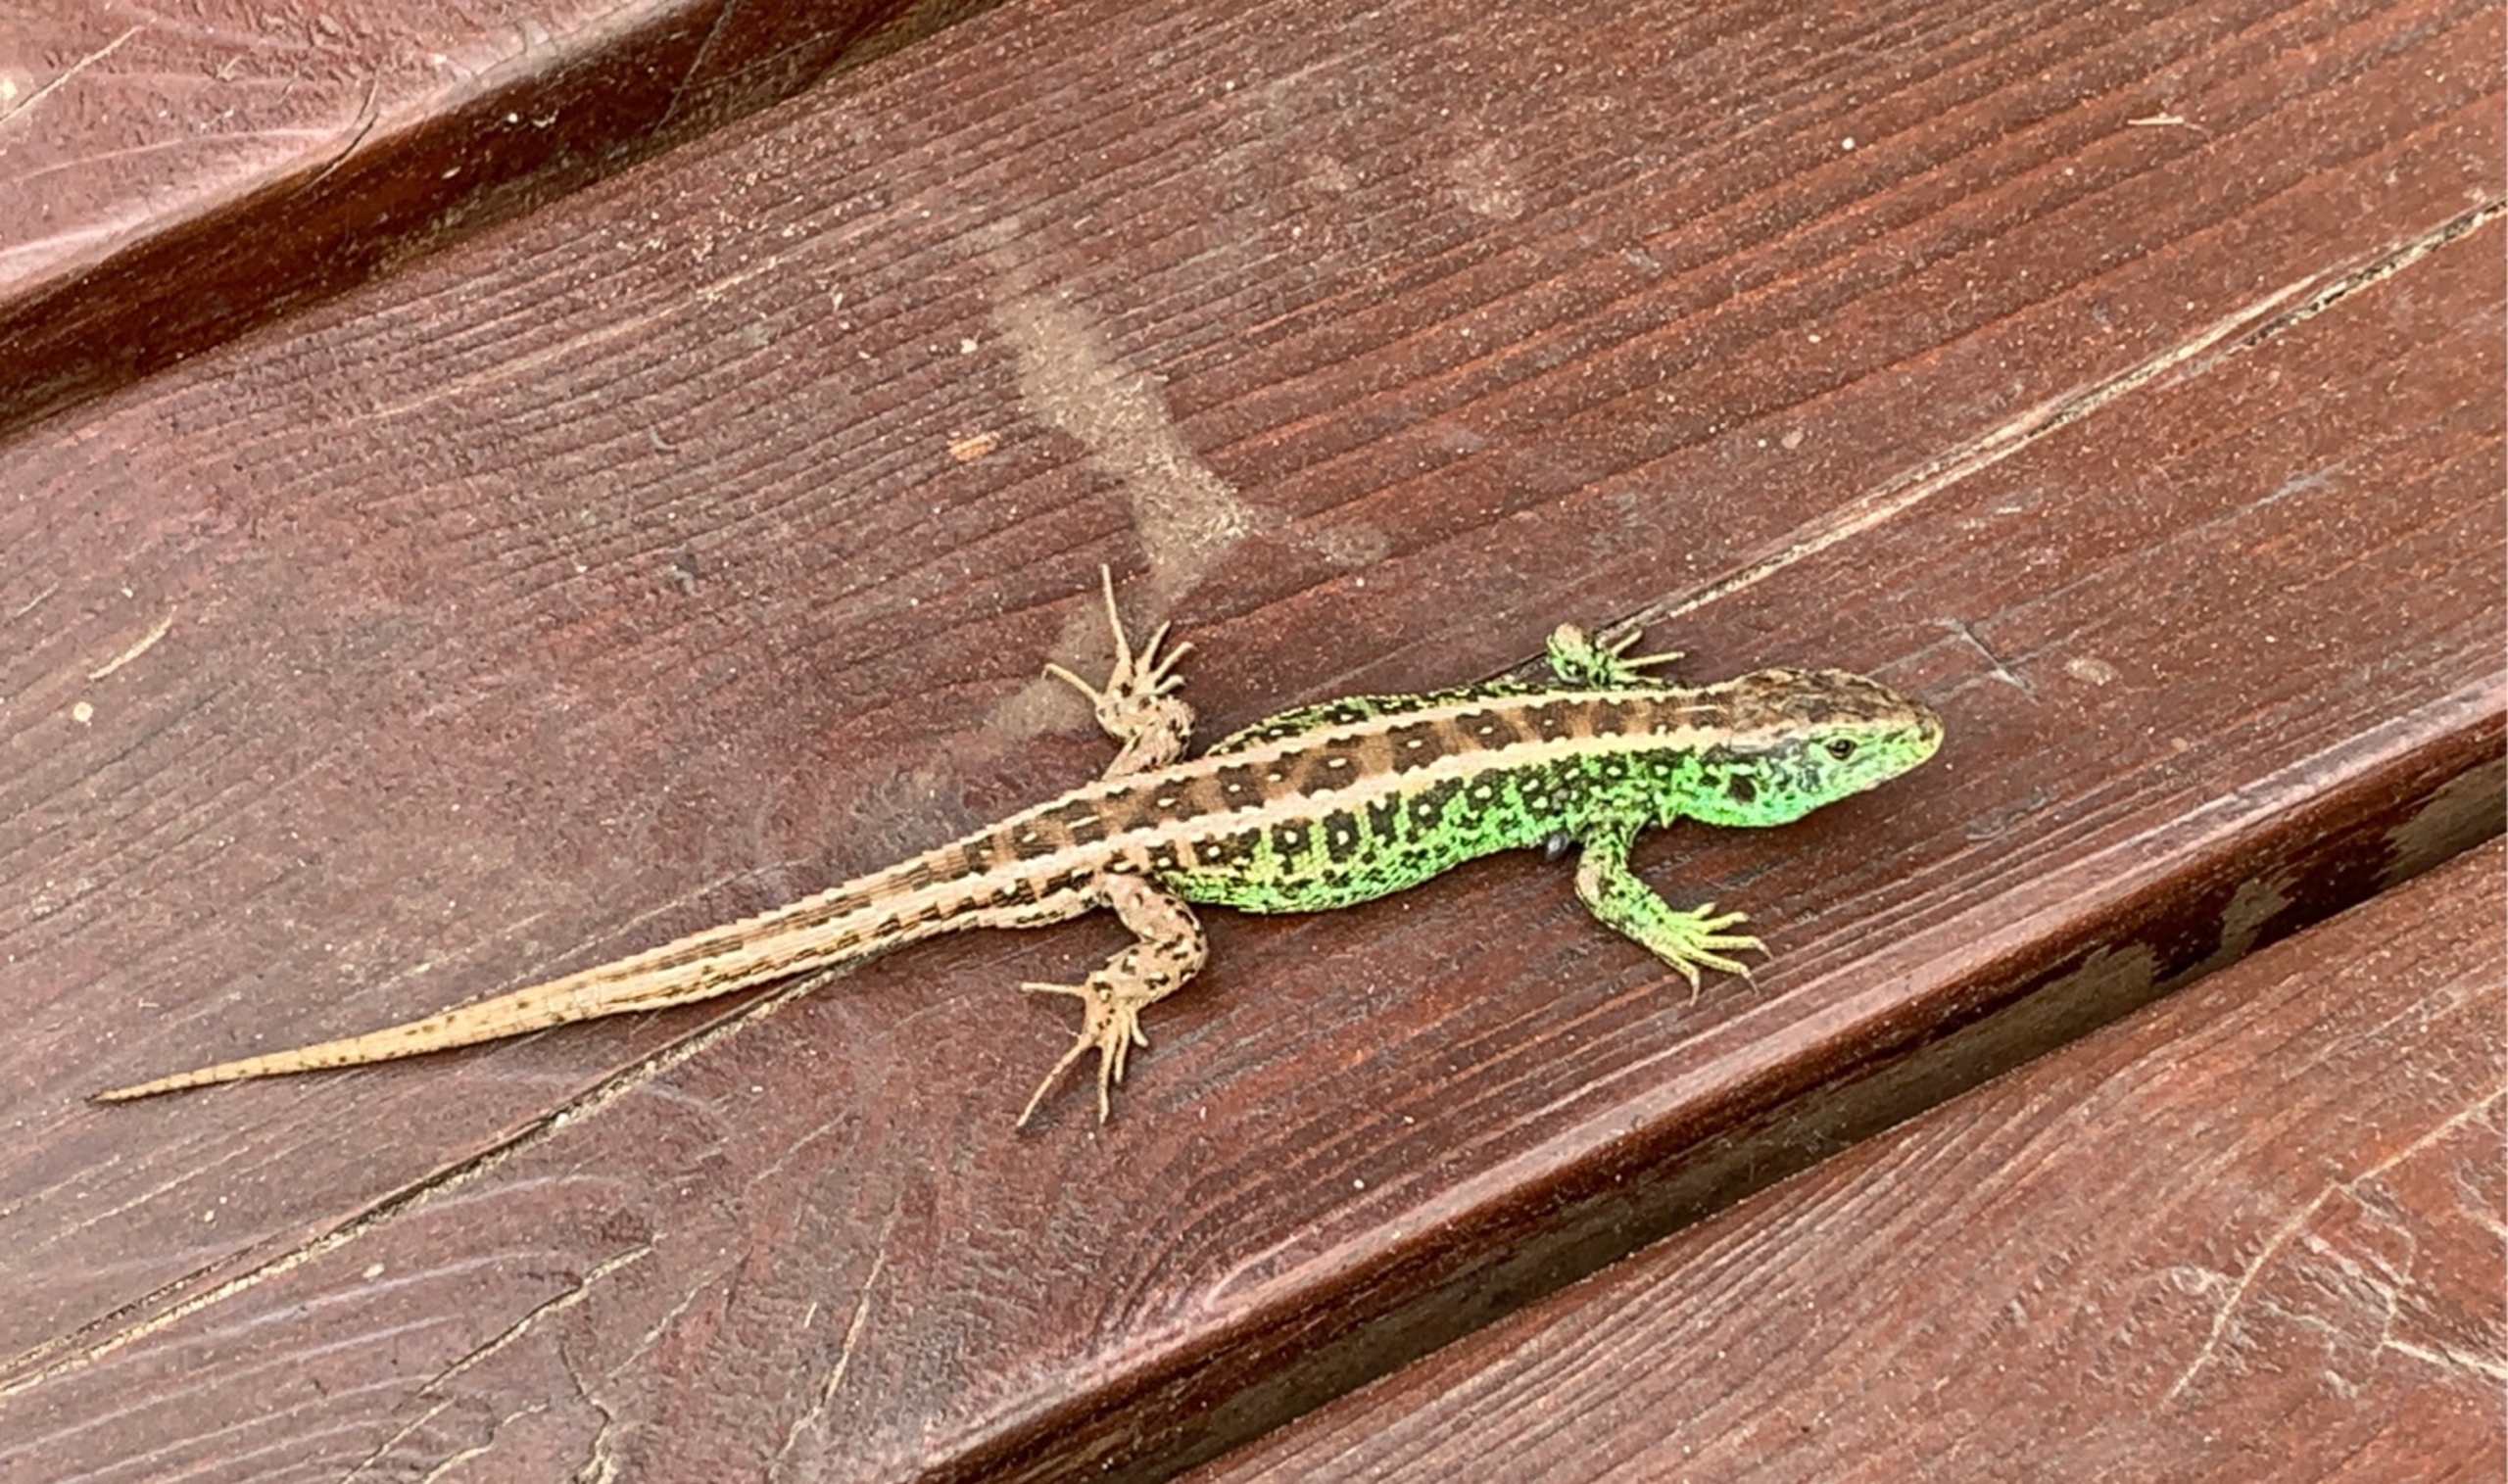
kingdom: Animalia
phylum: Chordata
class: Squamata
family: Lacertidae
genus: Lacerta
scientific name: Lacerta agilis
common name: Markfirben
